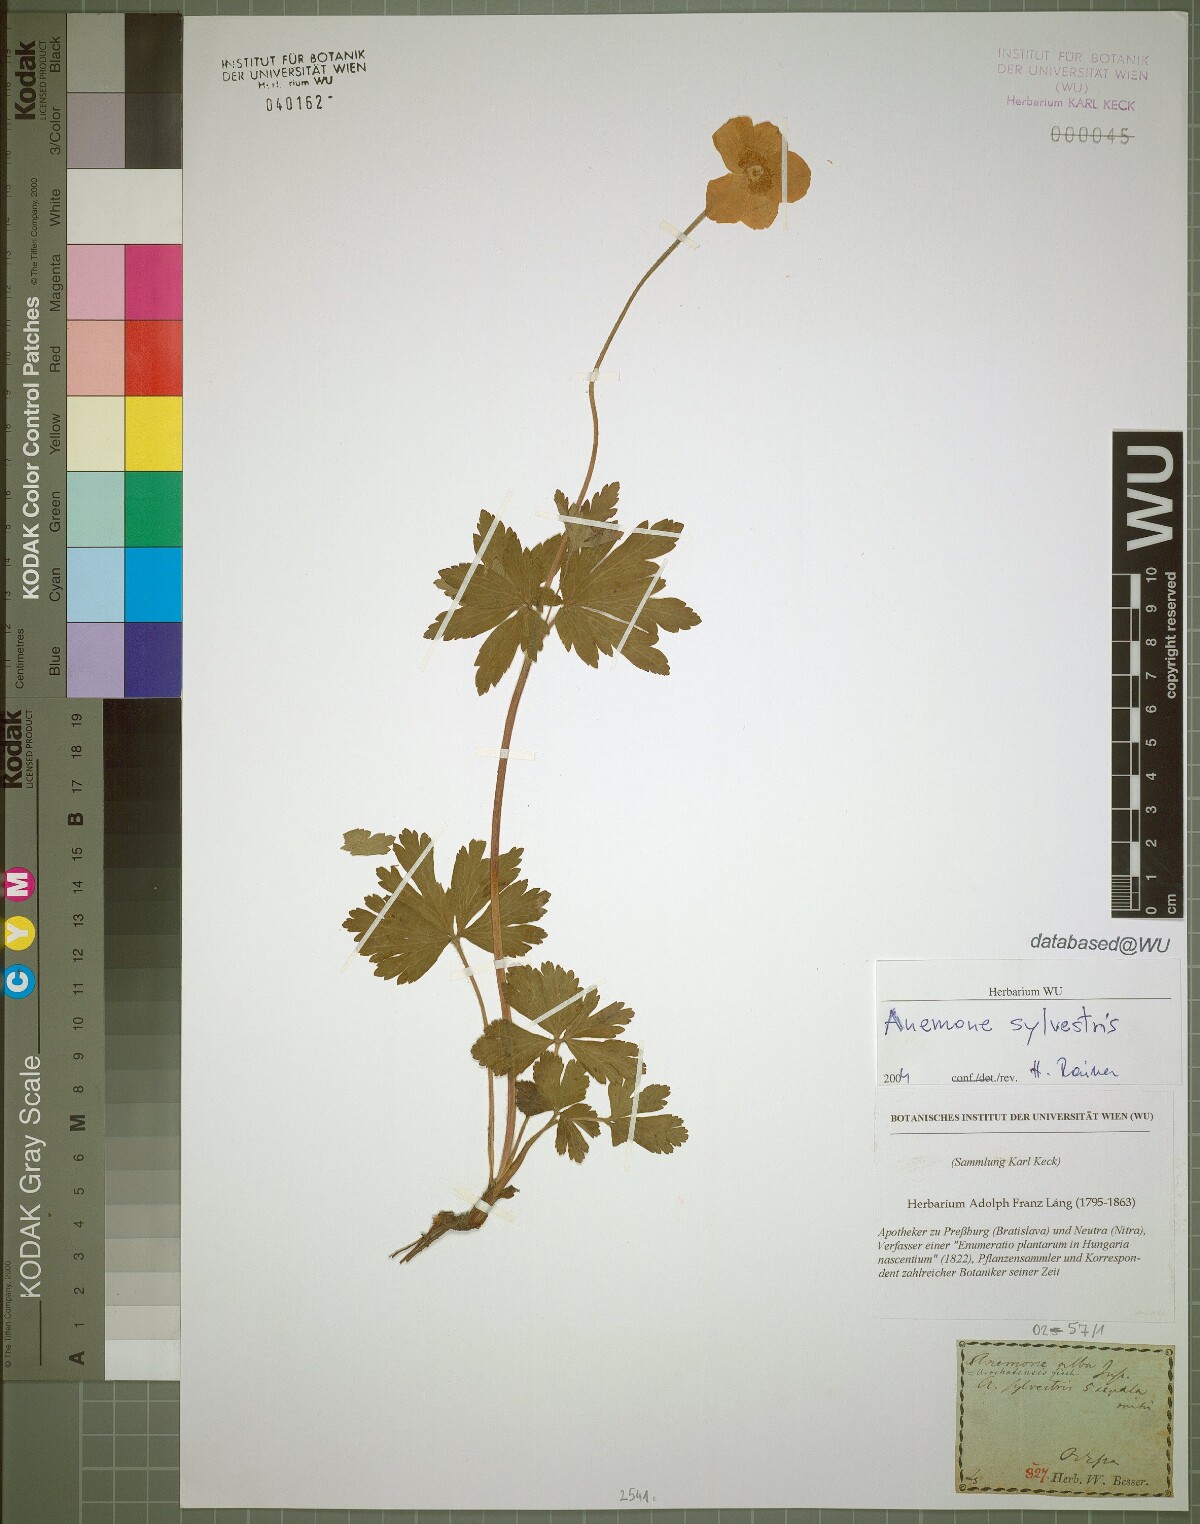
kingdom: Plantae
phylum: Tracheophyta
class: Magnoliopsida
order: Ranunculales
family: Ranunculaceae
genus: Anemone
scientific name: Anemone sylvestris
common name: Snowdrop anemone
